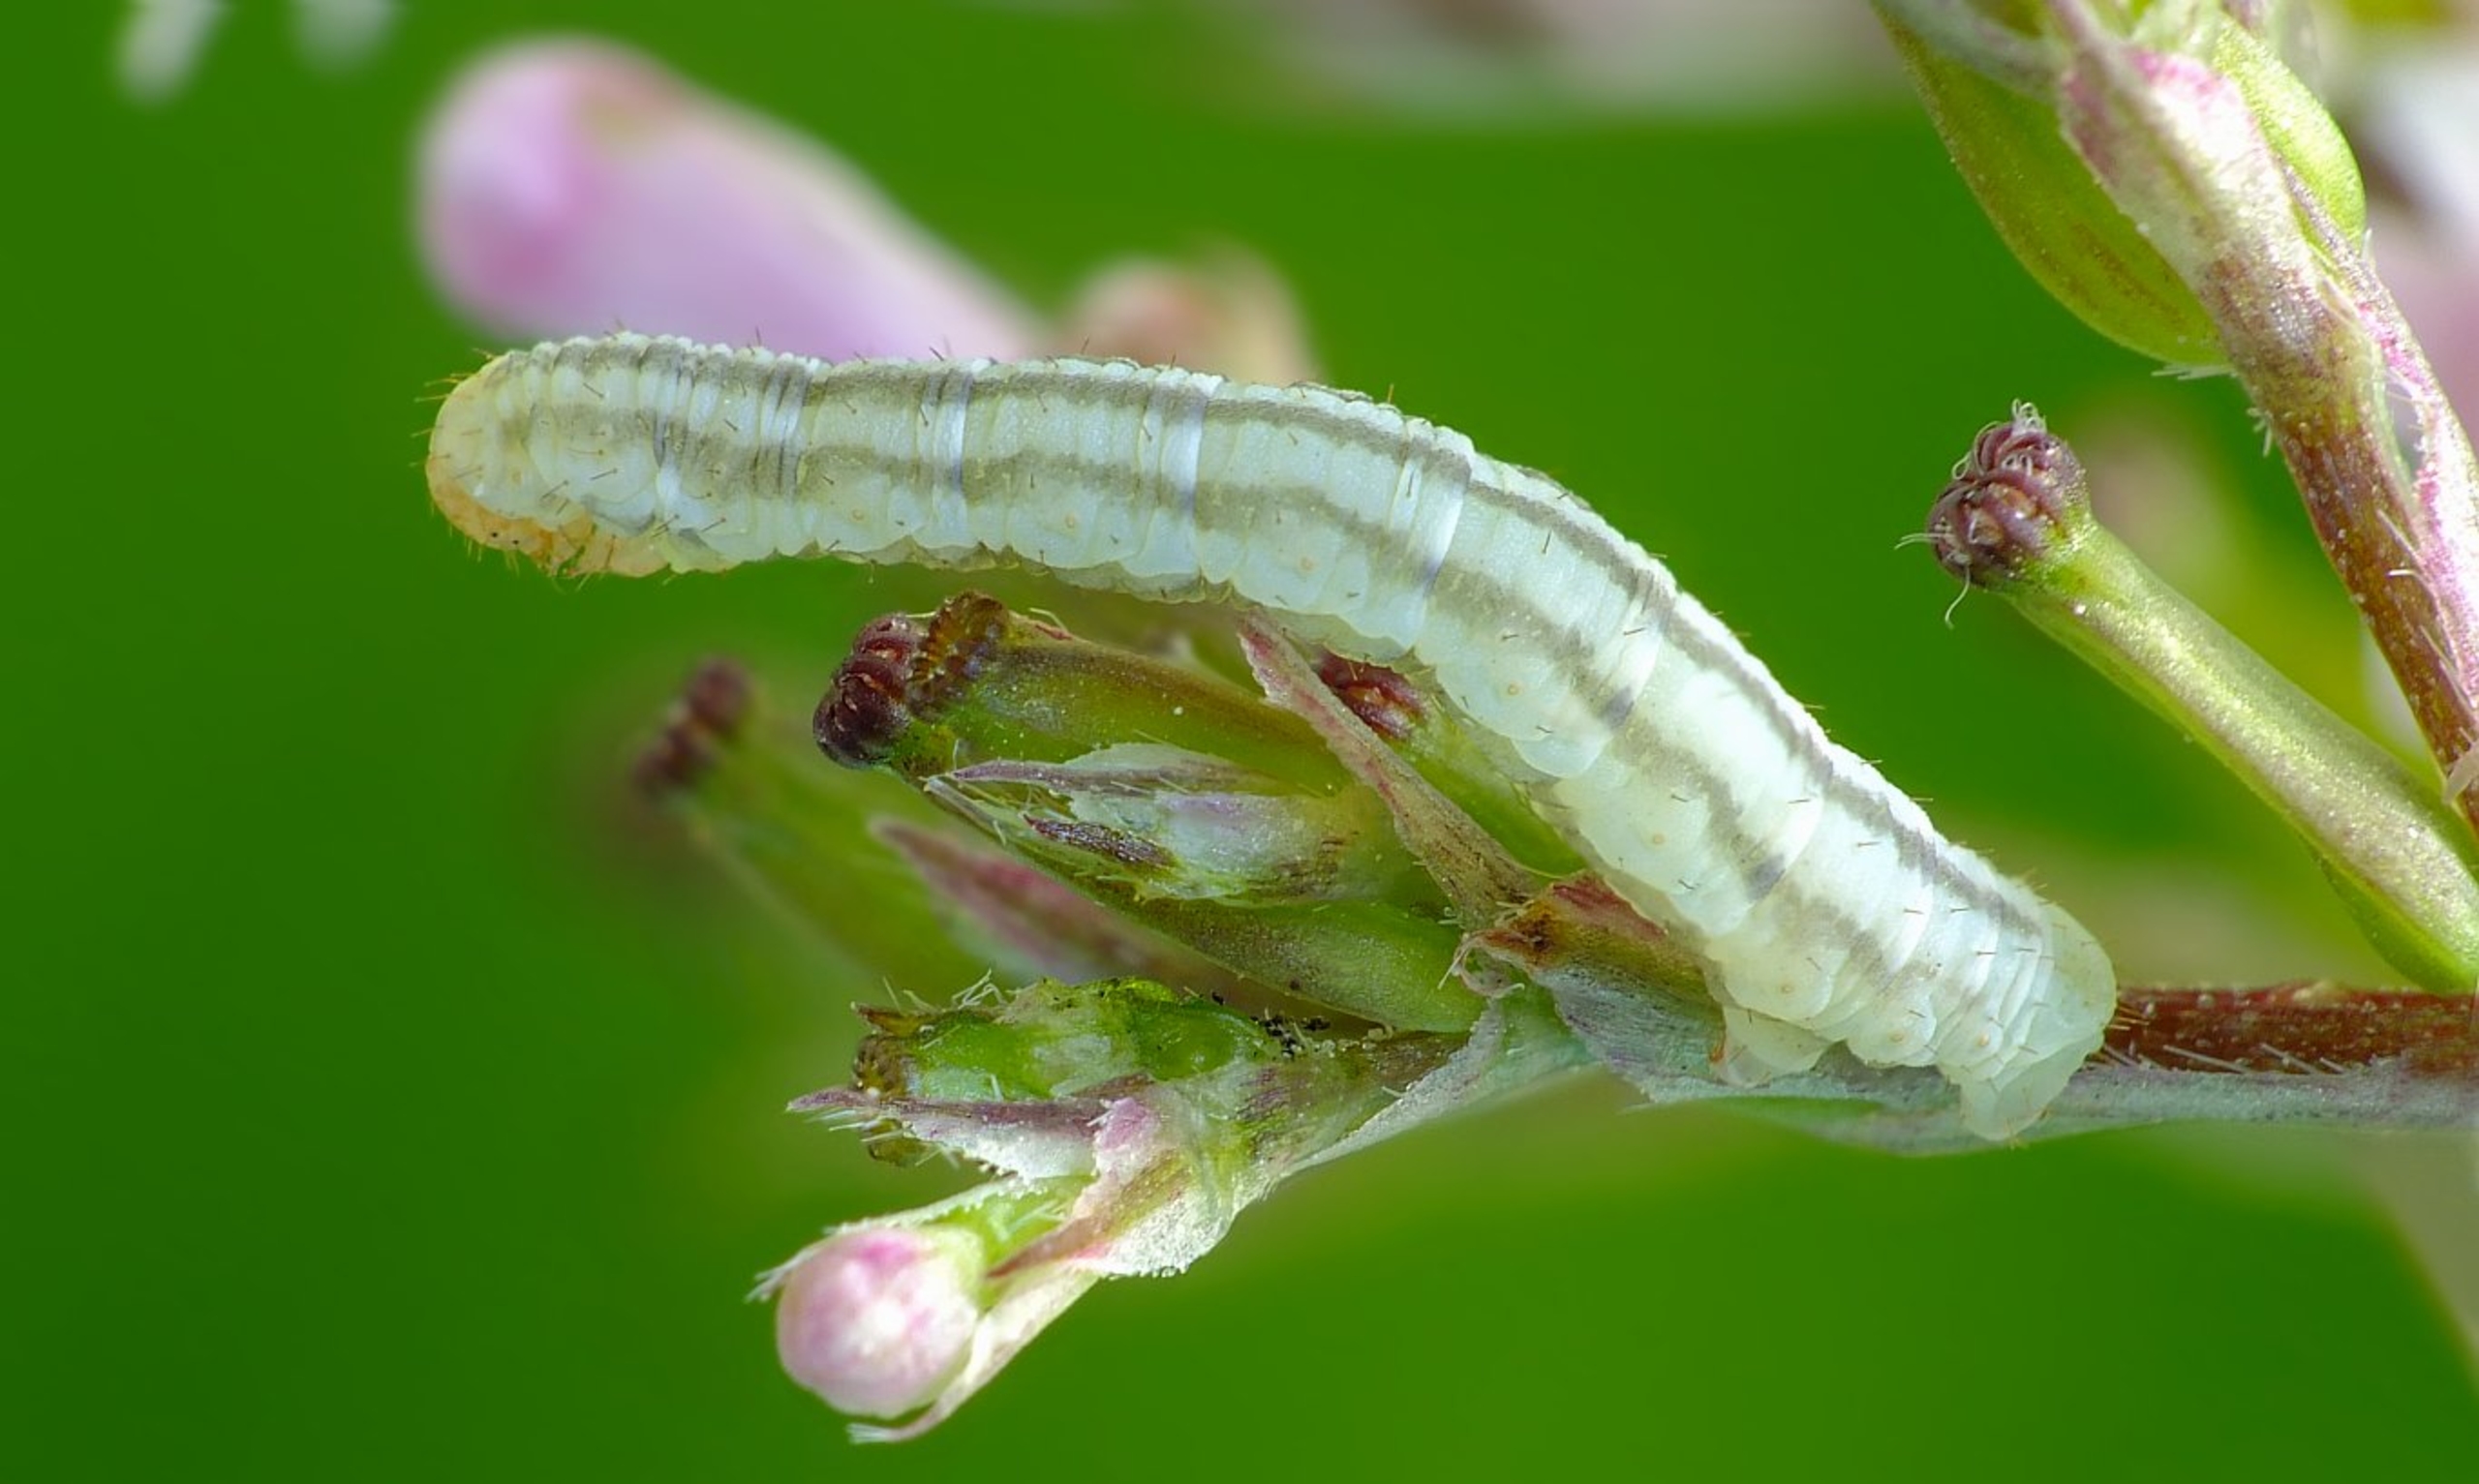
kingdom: Animalia
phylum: Arthropoda
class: Insecta
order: Lepidoptera
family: Geometridae
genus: Eupithecia
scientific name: Eupithecia valerianata
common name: Baldriandværgmåler
